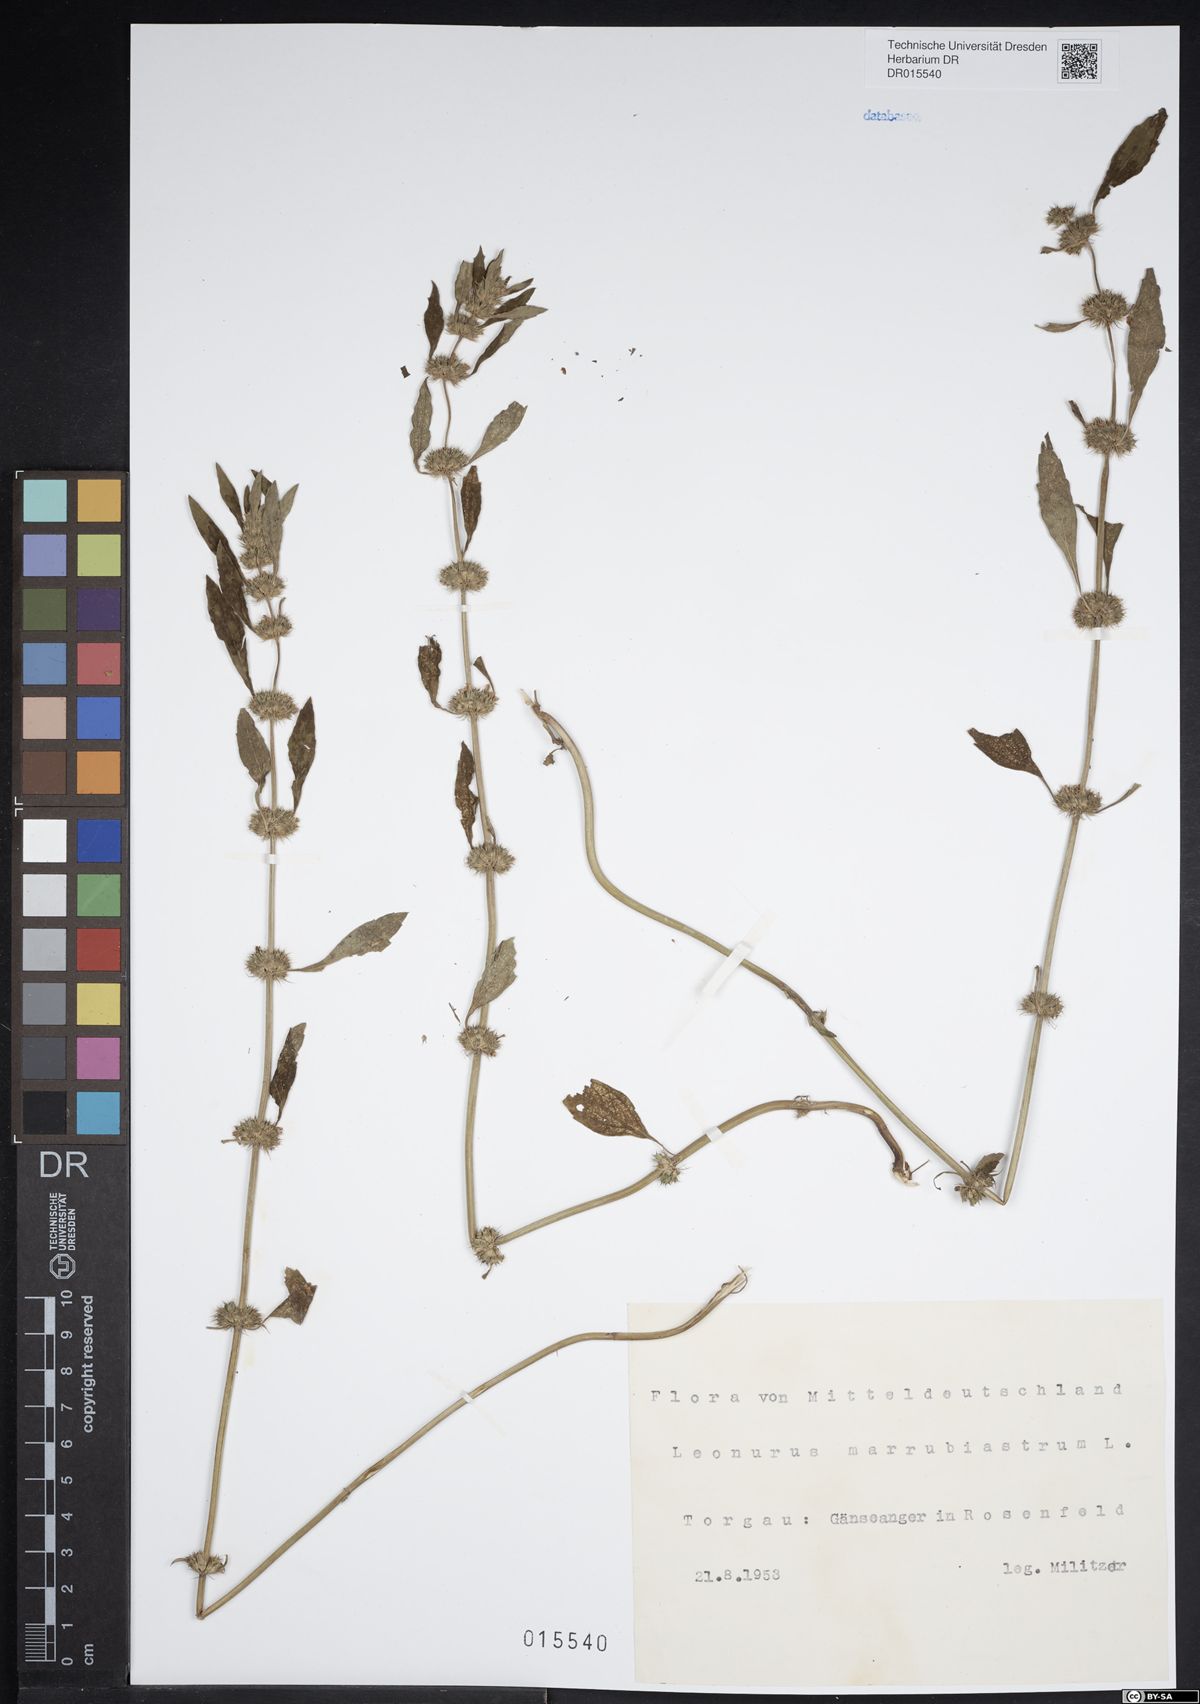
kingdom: Plantae
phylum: Tracheophyta
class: Magnoliopsida
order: Lamiales
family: Lamiaceae
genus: Chaiturus
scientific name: Chaiturus marrubiastrum
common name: Lion's tail
